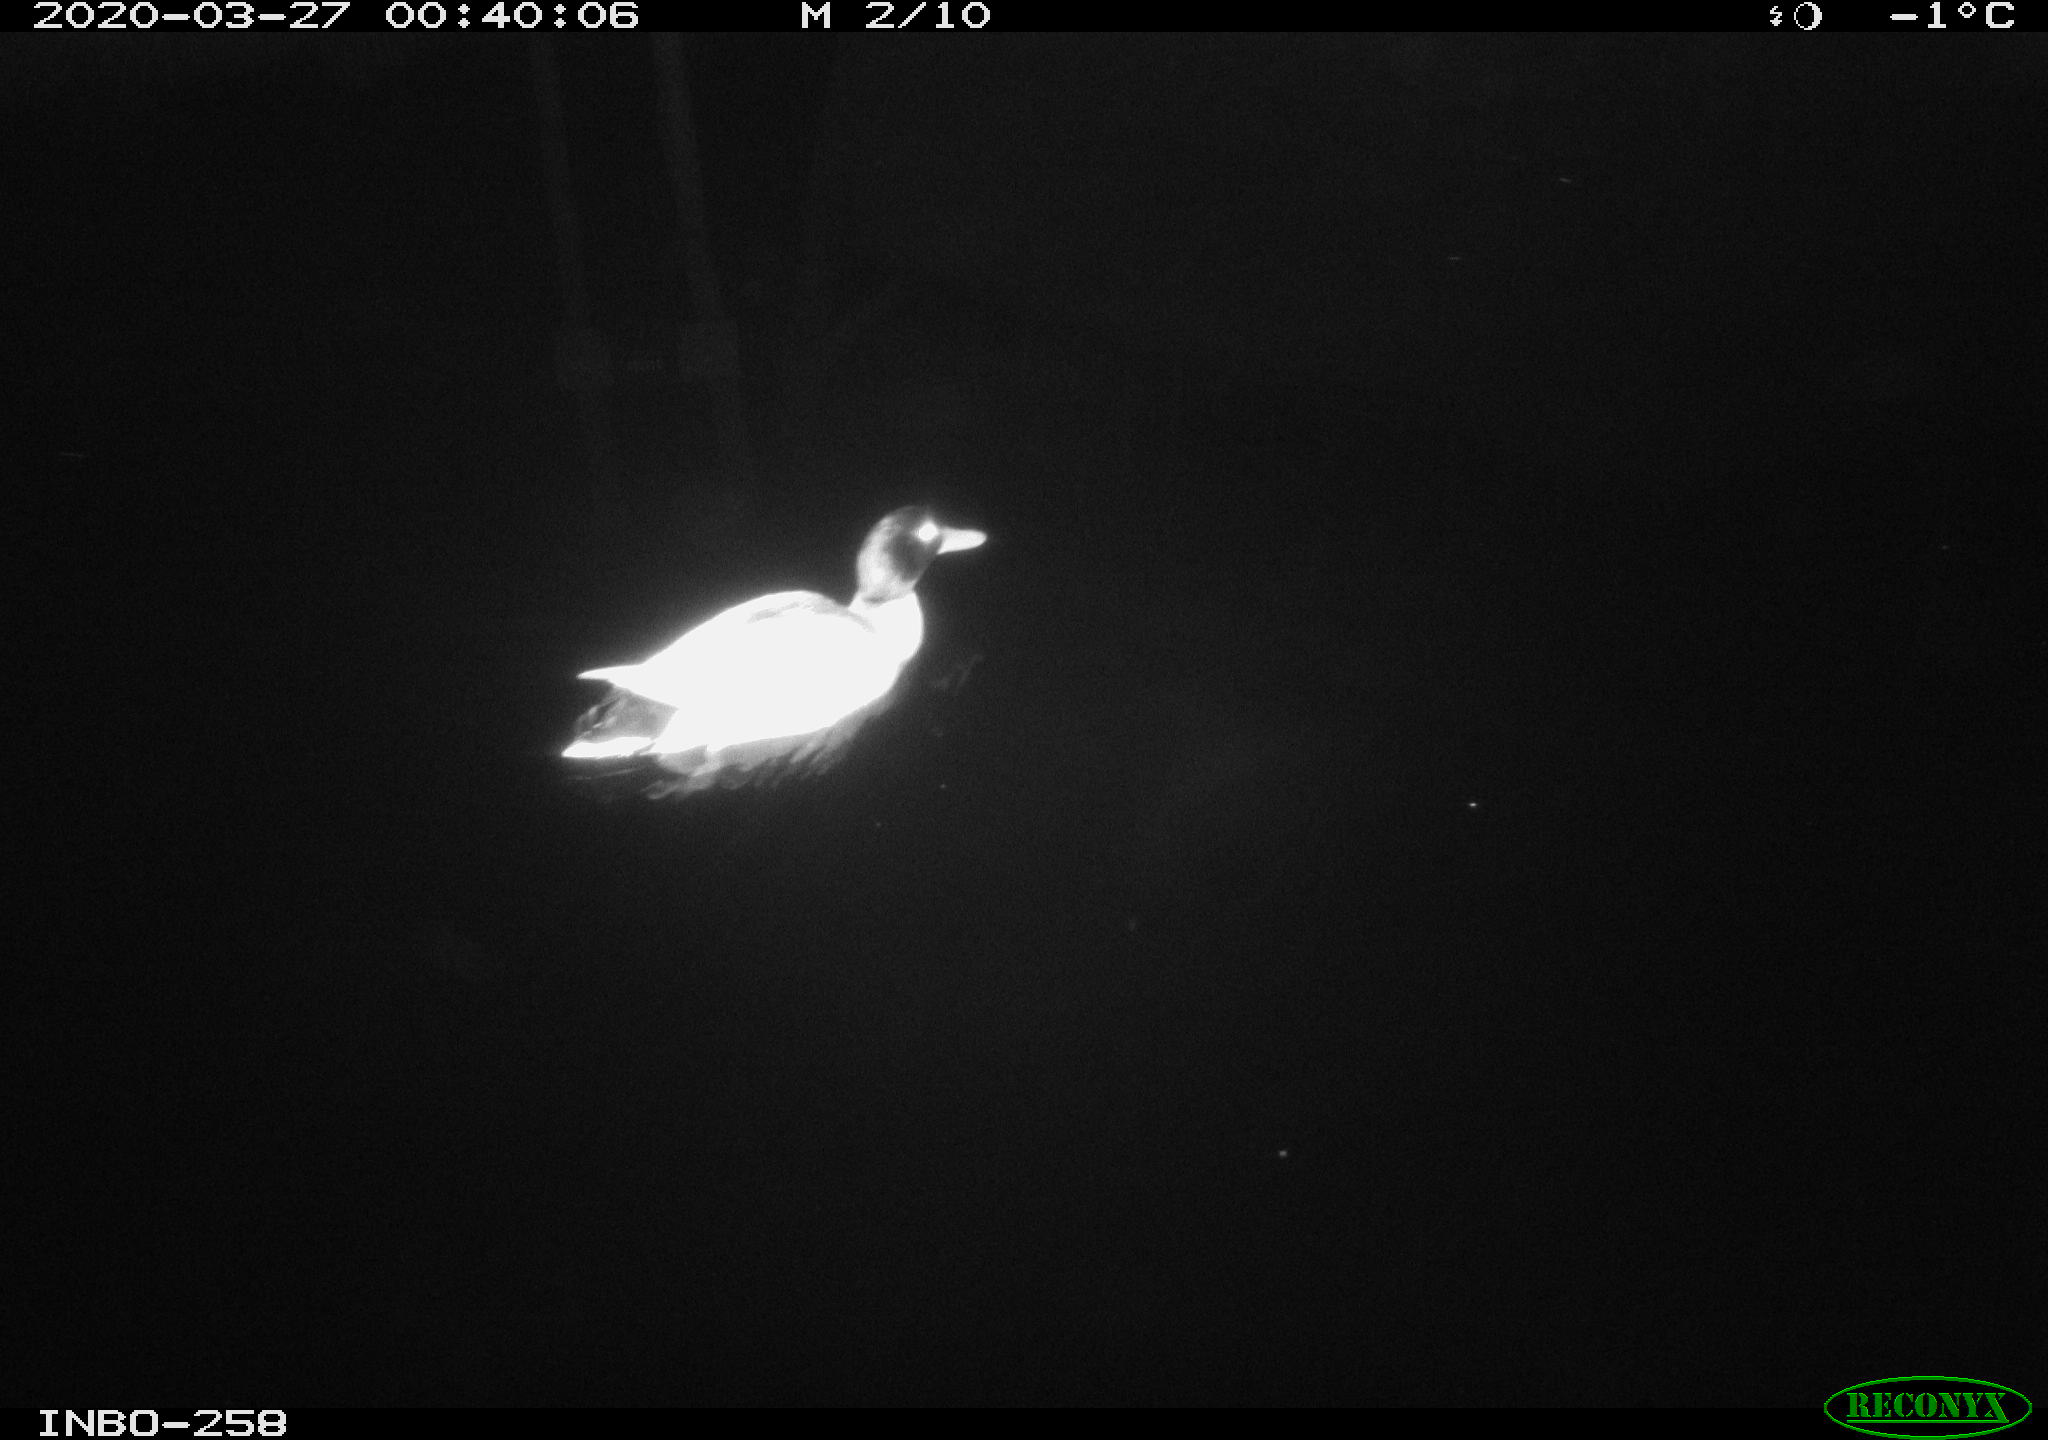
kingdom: Animalia
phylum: Chordata
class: Aves
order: Anseriformes
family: Anatidae
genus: Anas
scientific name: Anas platyrhynchos
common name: Mallard
